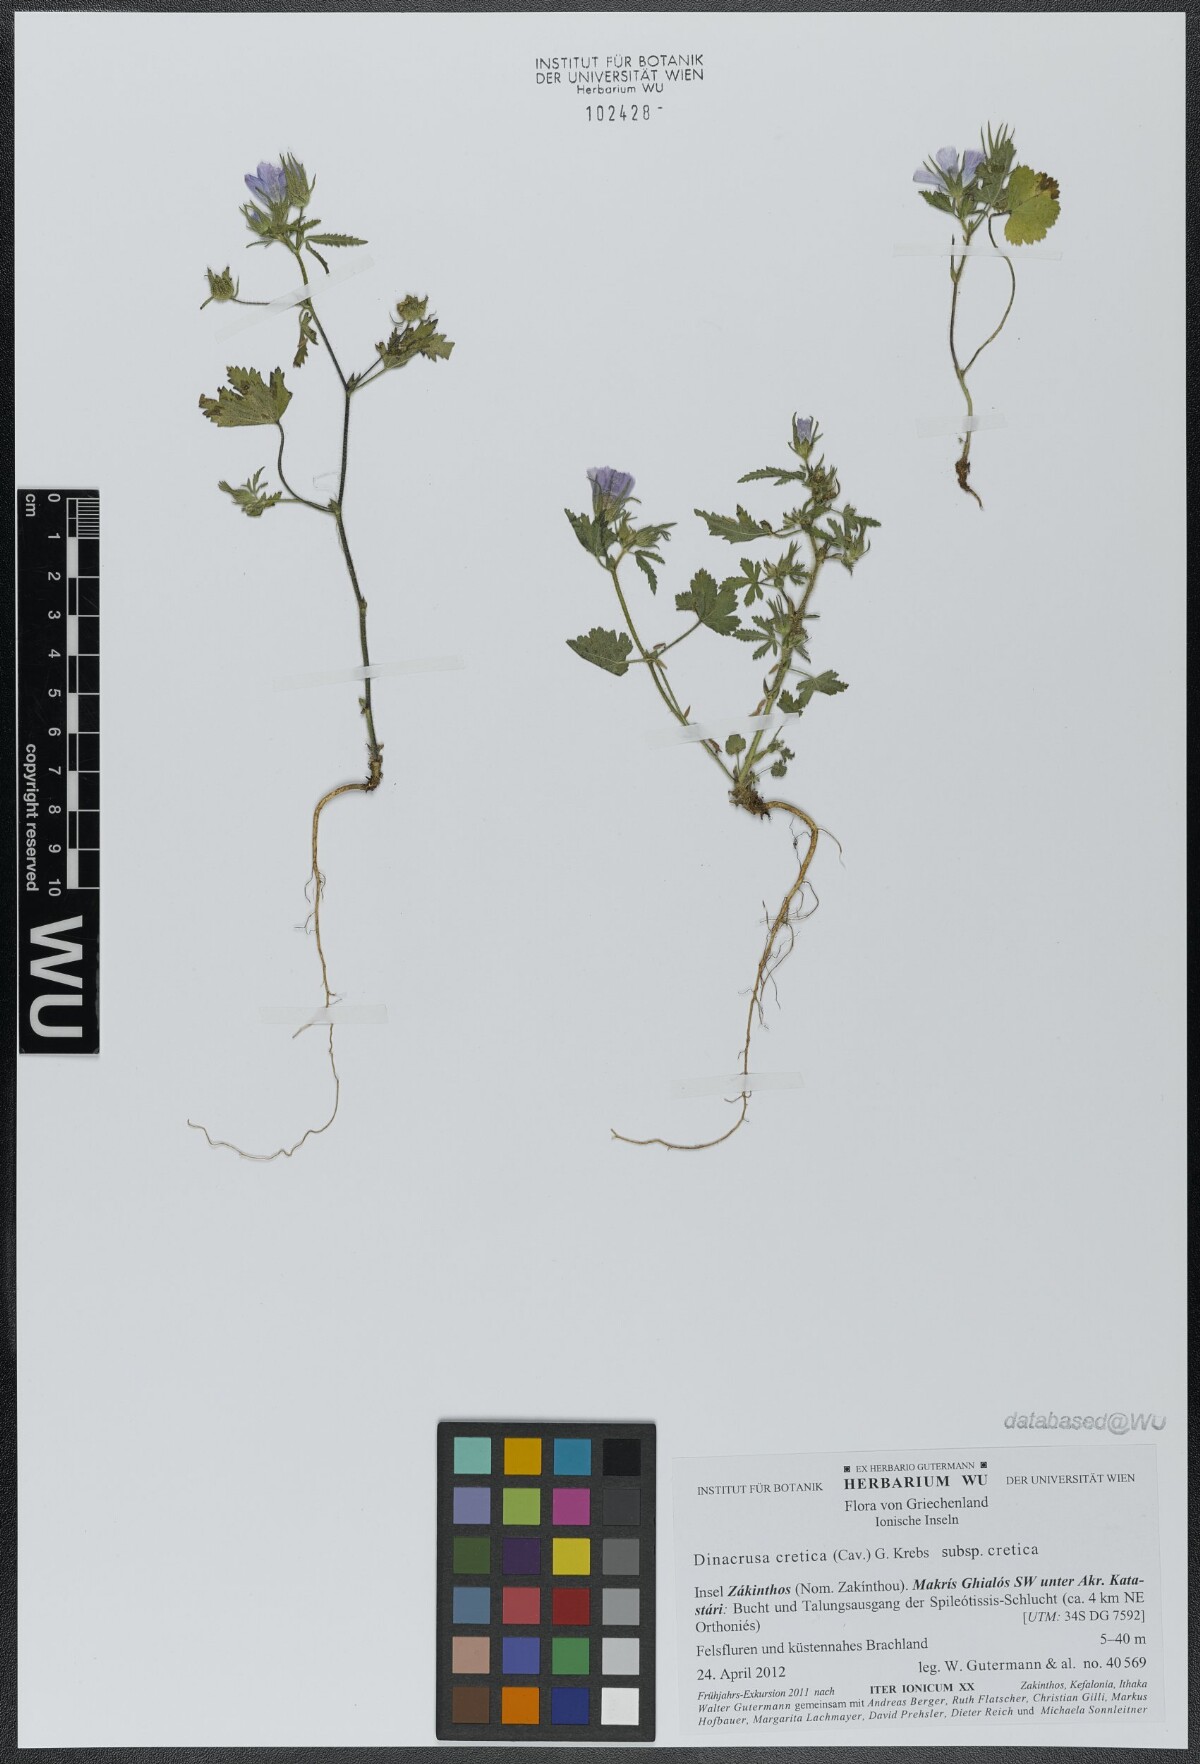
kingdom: Plantae
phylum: Tracheophyta
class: Magnoliopsida
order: Malvales
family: Malvaceae
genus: Malva
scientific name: Malva cretica
